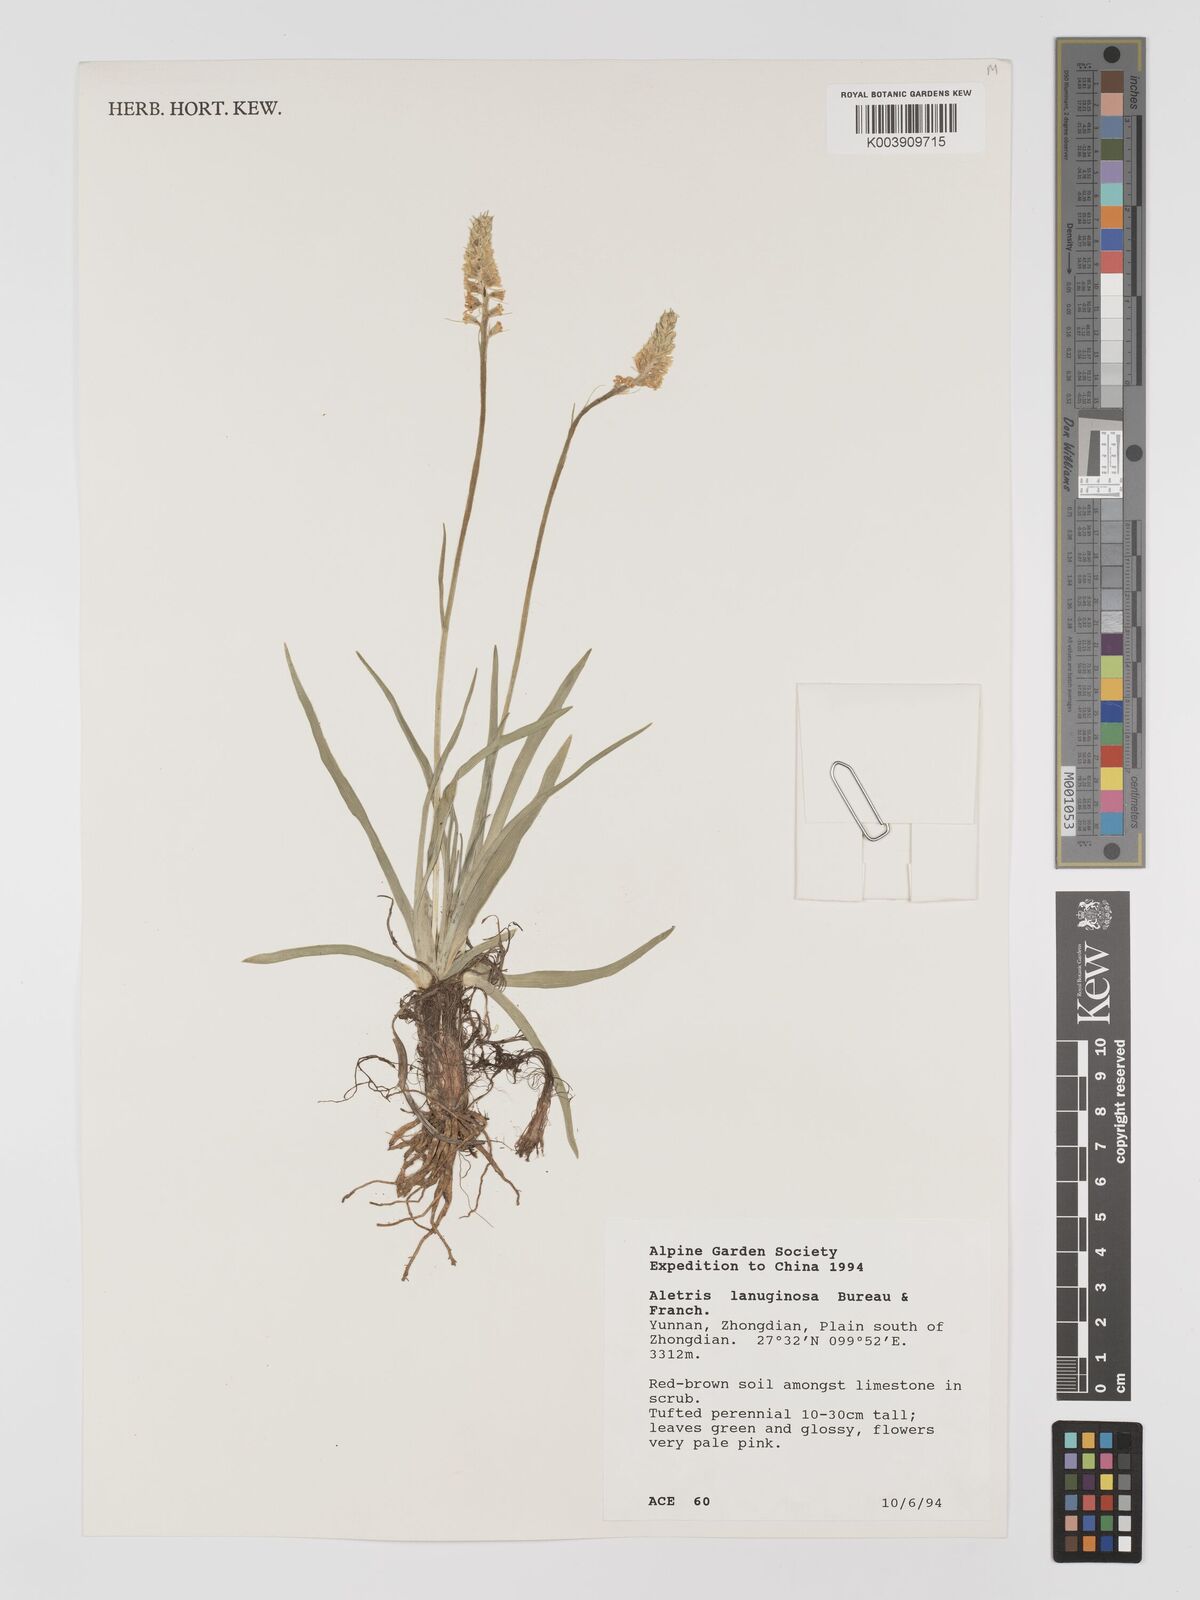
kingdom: Plantae
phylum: Tracheophyta
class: Liliopsida
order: Dioscoreales
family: Nartheciaceae
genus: Aletris
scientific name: Aletris laxiflora
